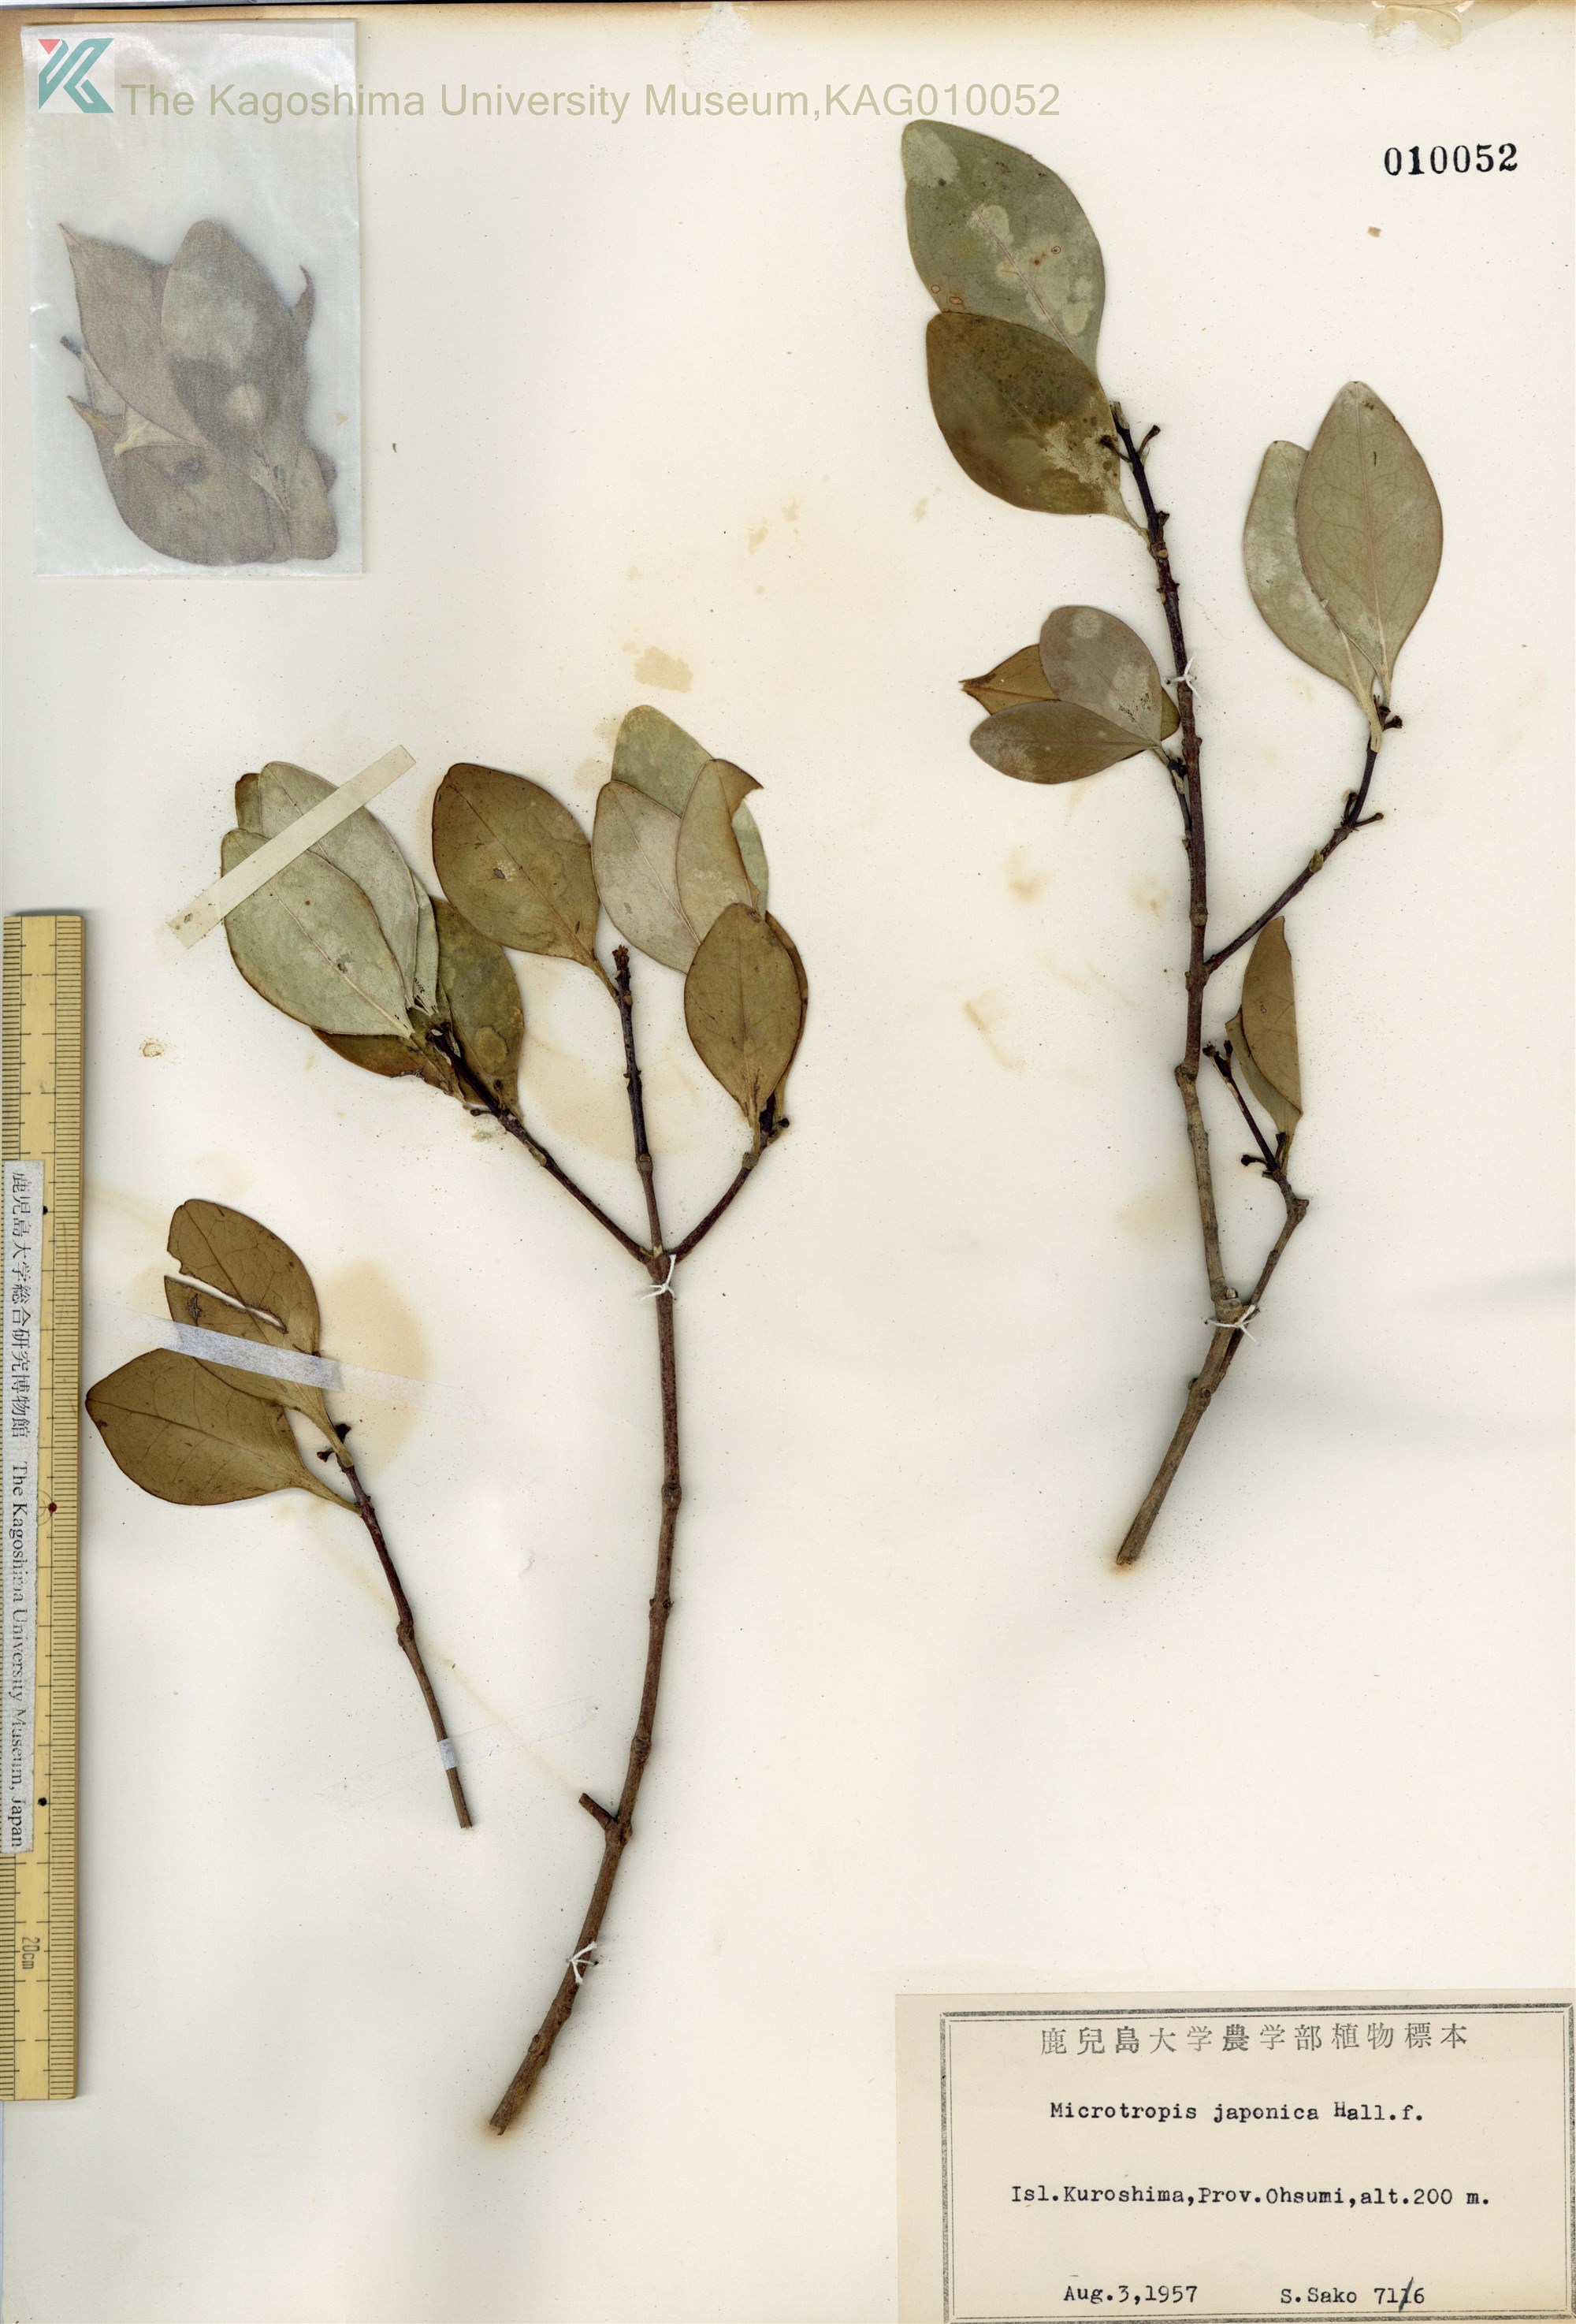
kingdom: Plantae
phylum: Tracheophyta
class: Magnoliopsida
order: Celastrales
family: Celastraceae
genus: Microtropis
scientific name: Microtropis japonica
